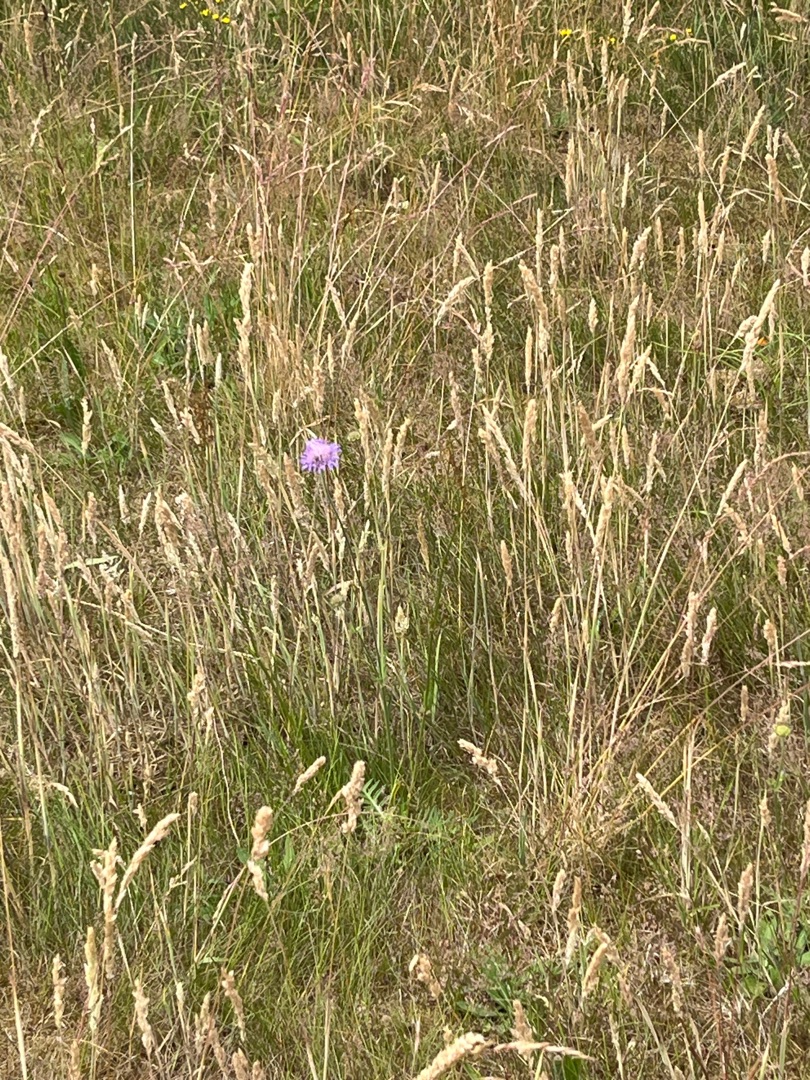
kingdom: Plantae
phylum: Tracheophyta
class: Magnoliopsida
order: Dipsacales
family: Caprifoliaceae
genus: Knautia
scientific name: Knautia arvensis
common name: Blåhat
